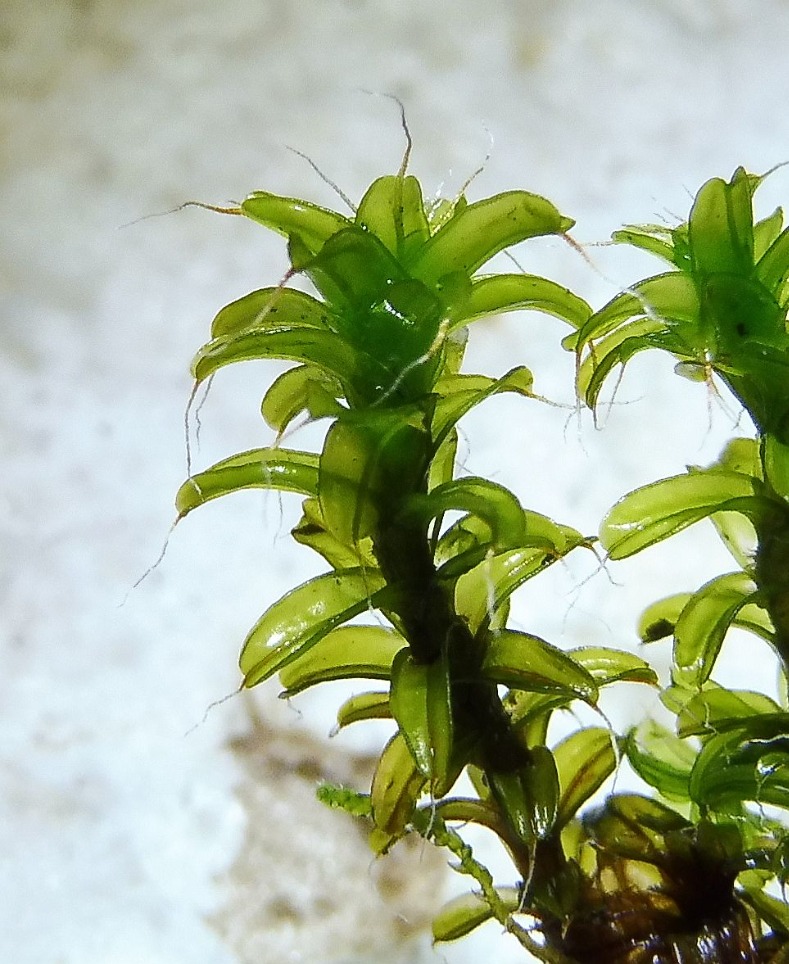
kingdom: Plantae
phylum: Bryophyta
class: Bryopsida
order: Pottiales
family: Pottiaceae
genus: Syntrichia
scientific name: Syntrichia ruralis
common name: Tag-hårstjerne
